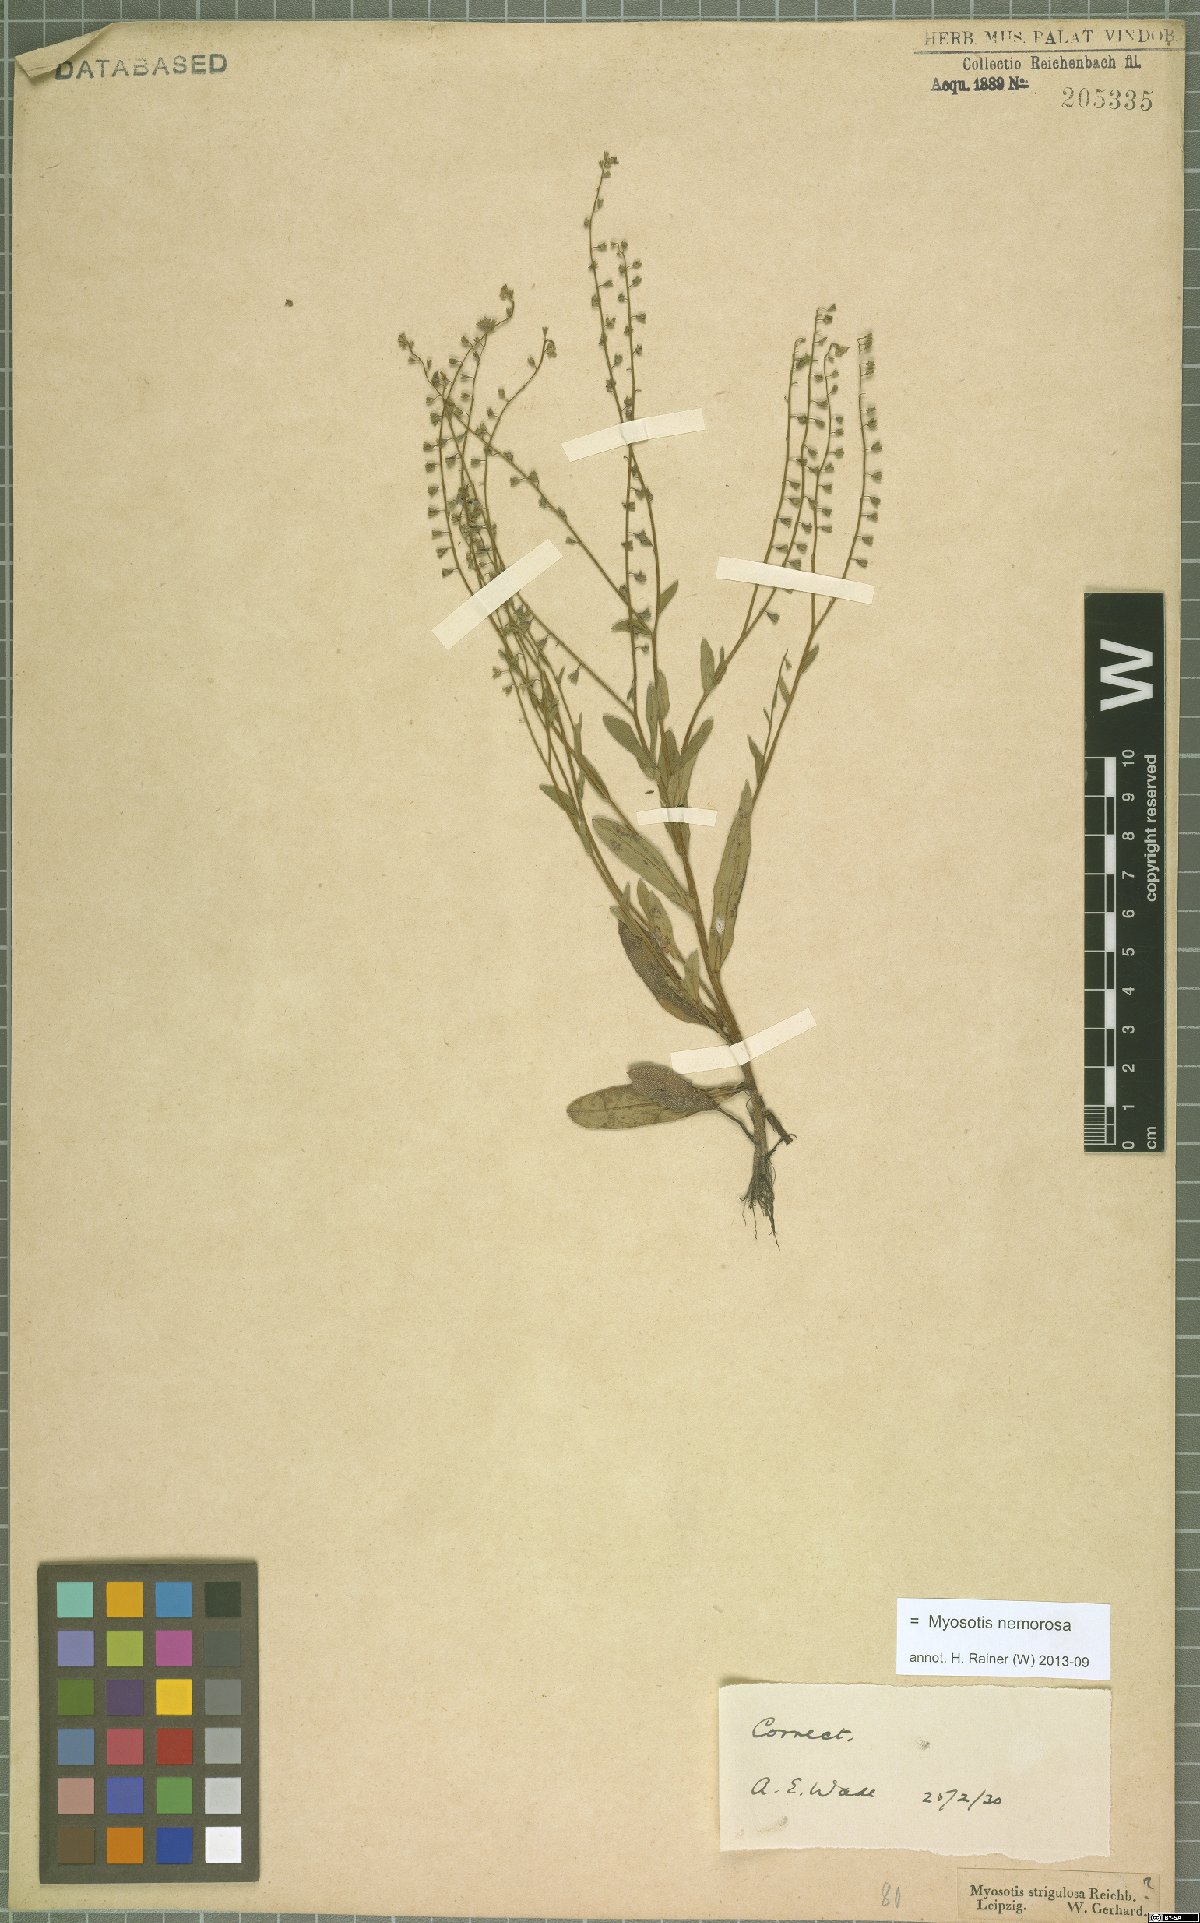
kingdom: Plantae
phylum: Tracheophyta
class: Magnoliopsida
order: Boraginales
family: Boraginaceae
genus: Myosotis
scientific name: Myosotis nemorosa
